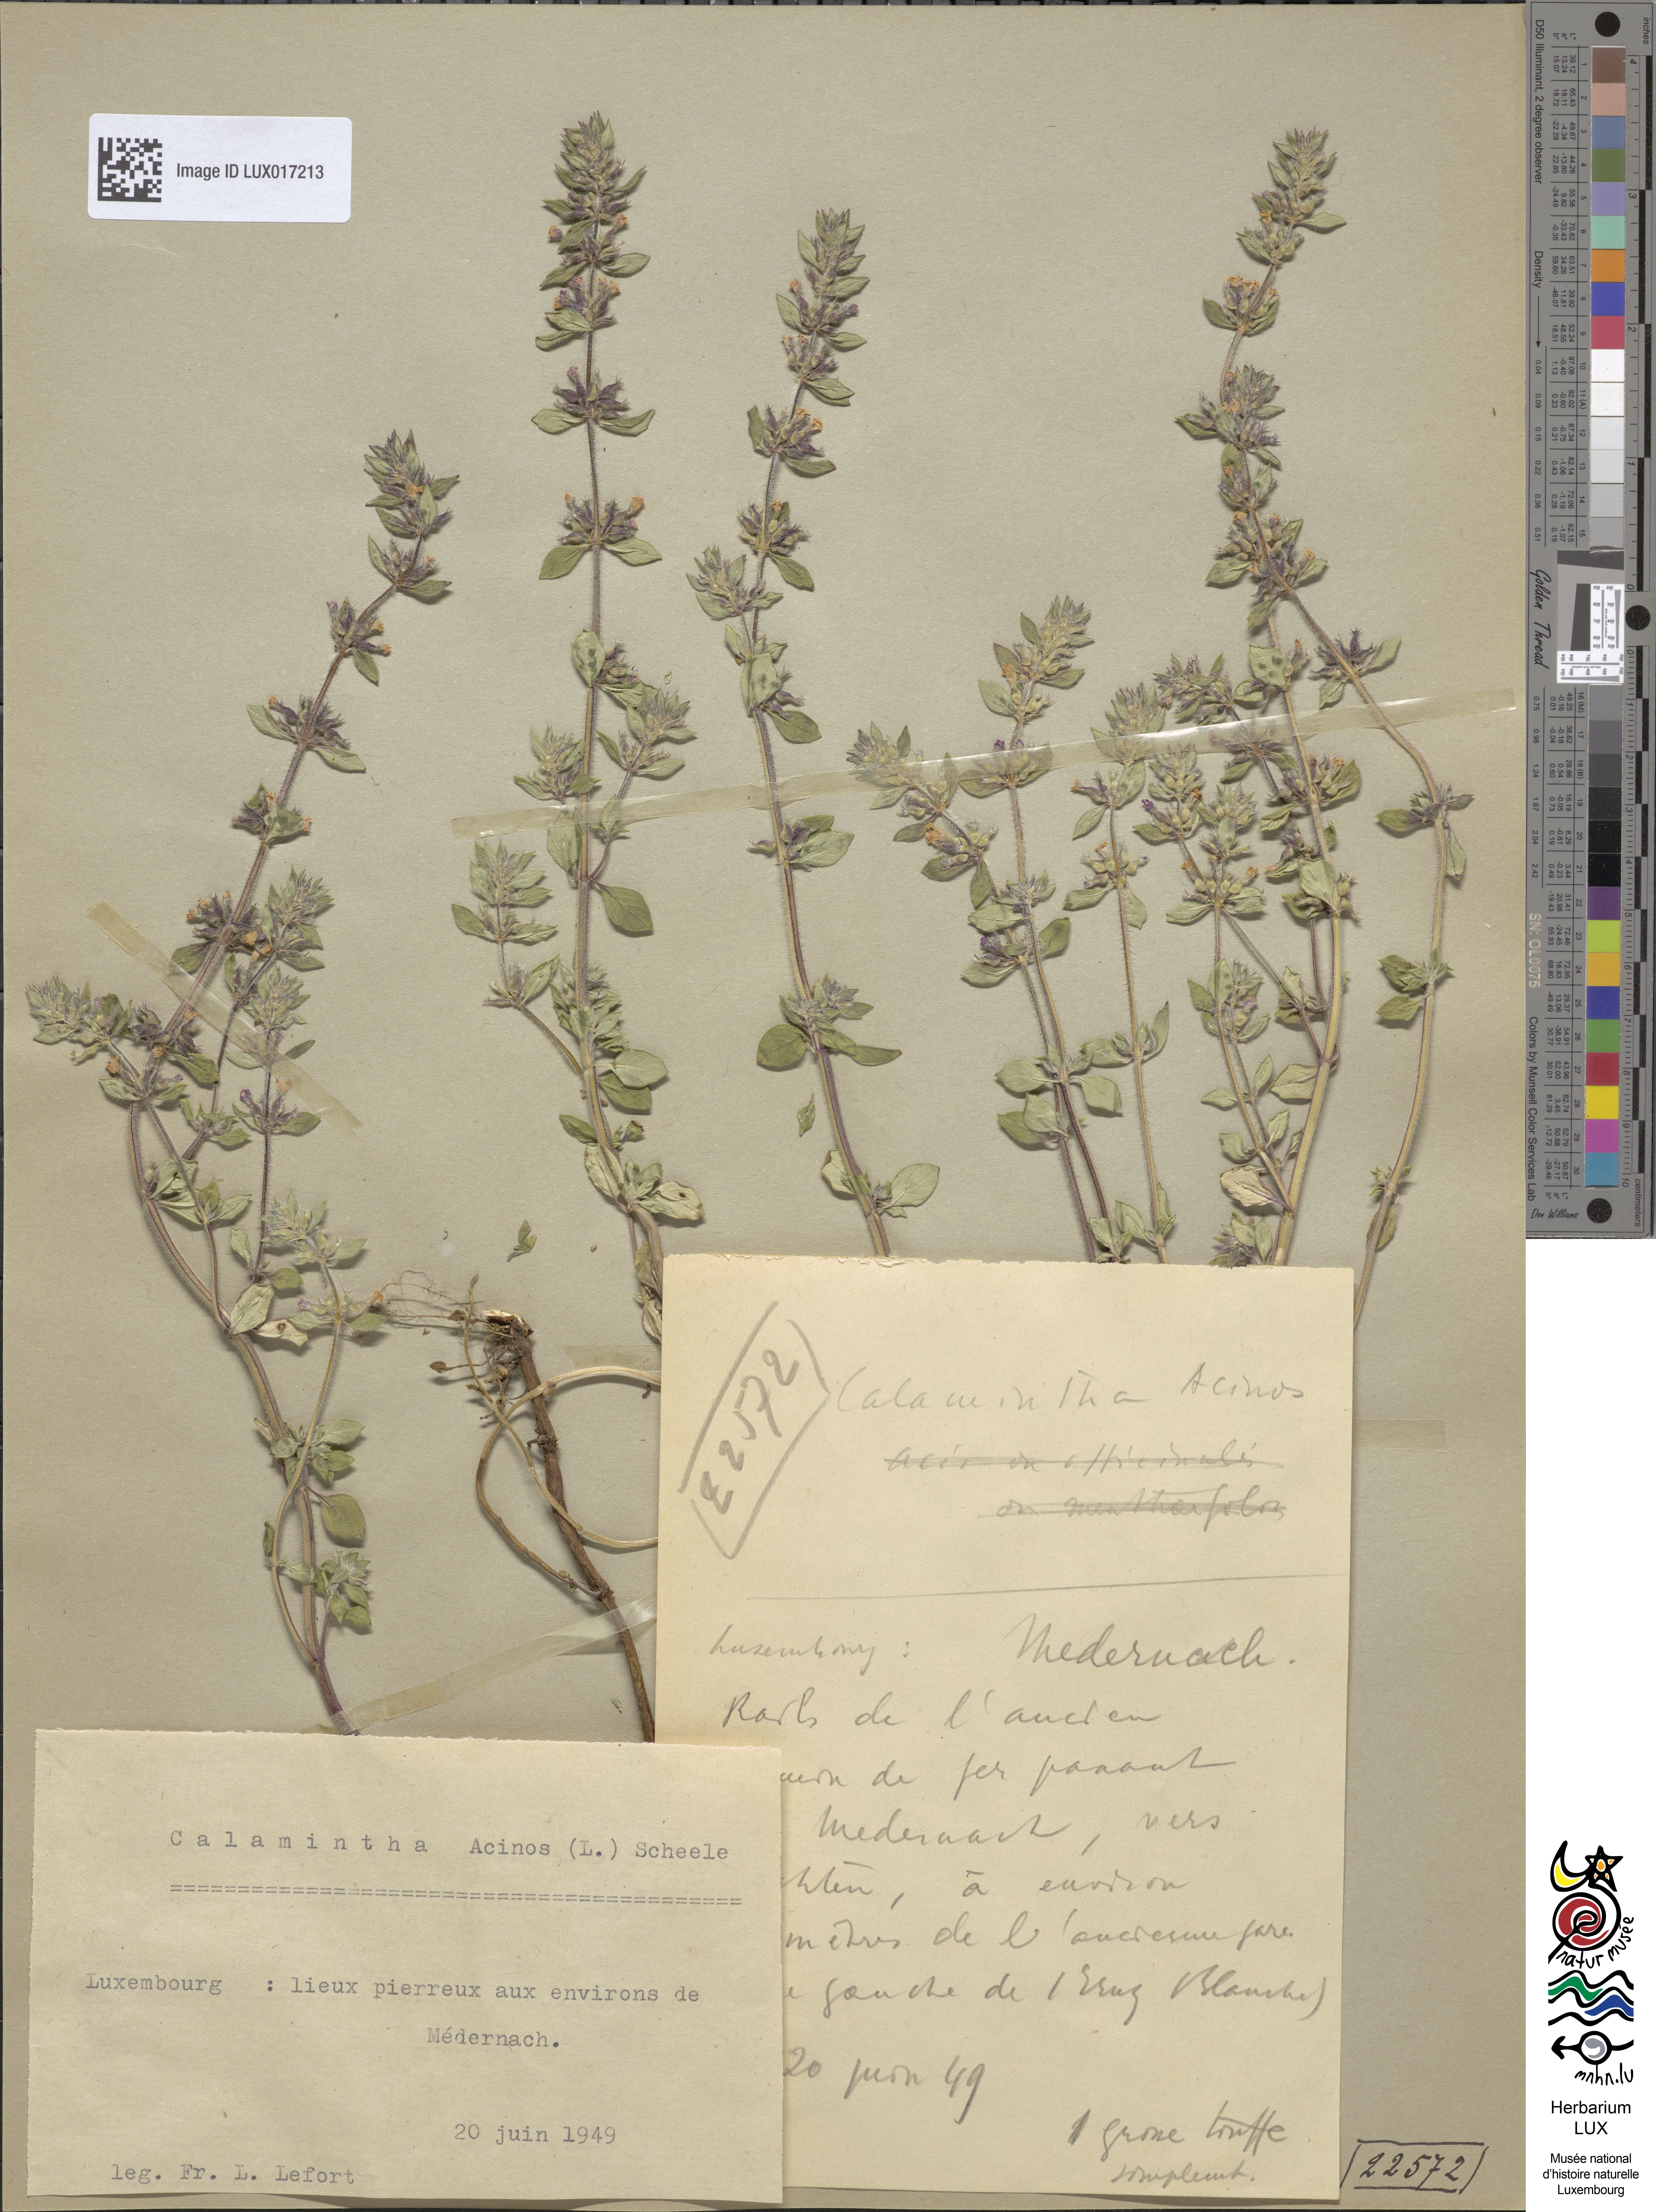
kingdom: Plantae
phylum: Tracheophyta
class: Magnoliopsida
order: Lamiales
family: Lamiaceae
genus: Clinopodium
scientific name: Clinopodium acinos
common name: Basil thyme
